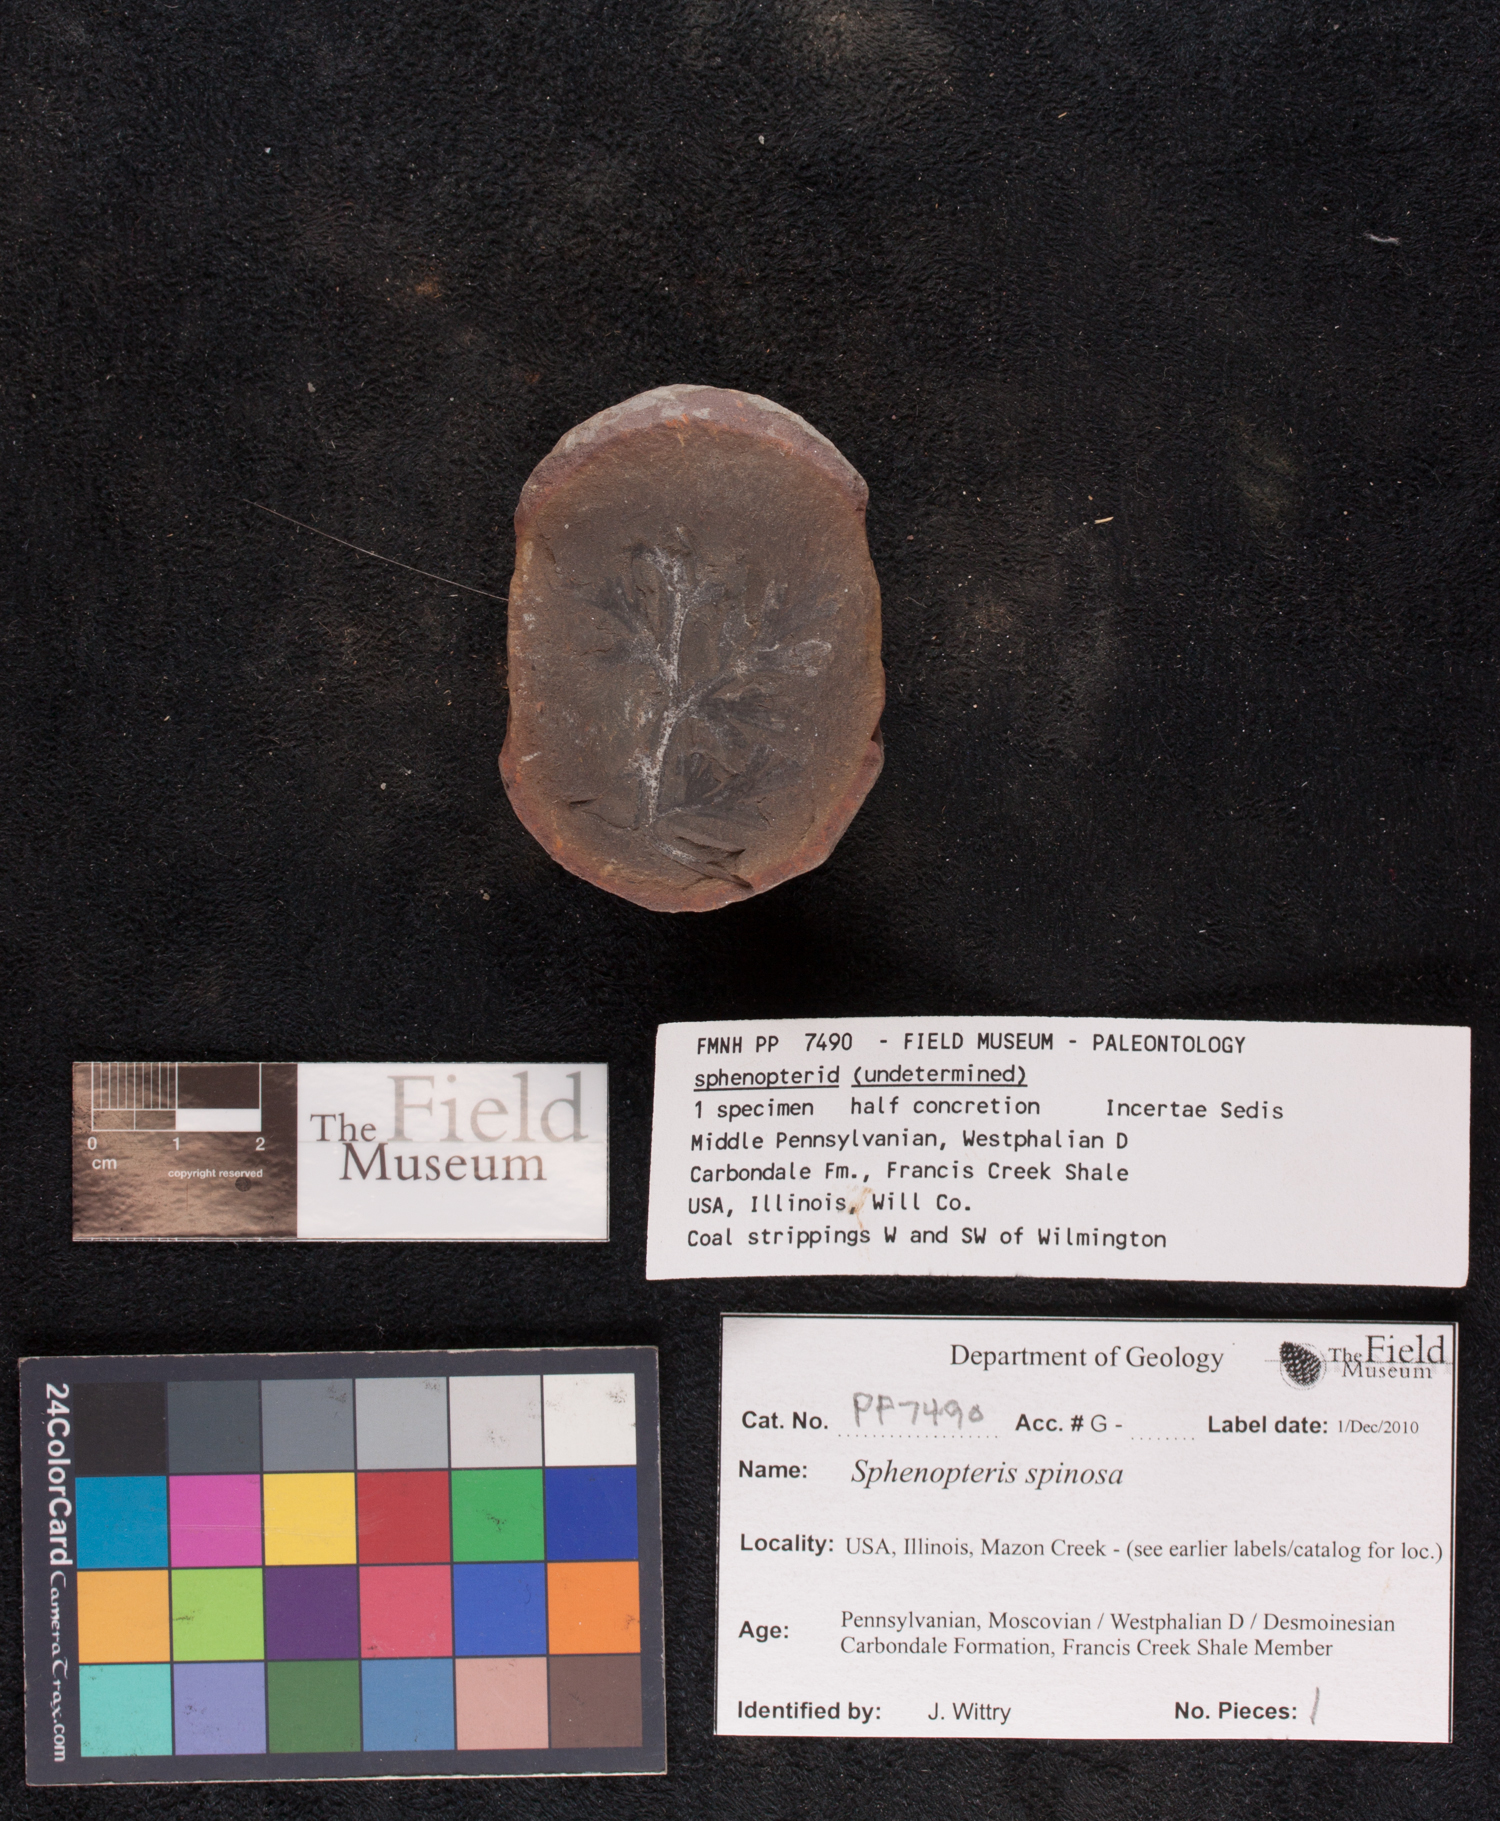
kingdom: Plantae
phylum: Tracheophyta
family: Lyginopteridaceae
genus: Sphenopteris
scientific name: Sphenopteris
